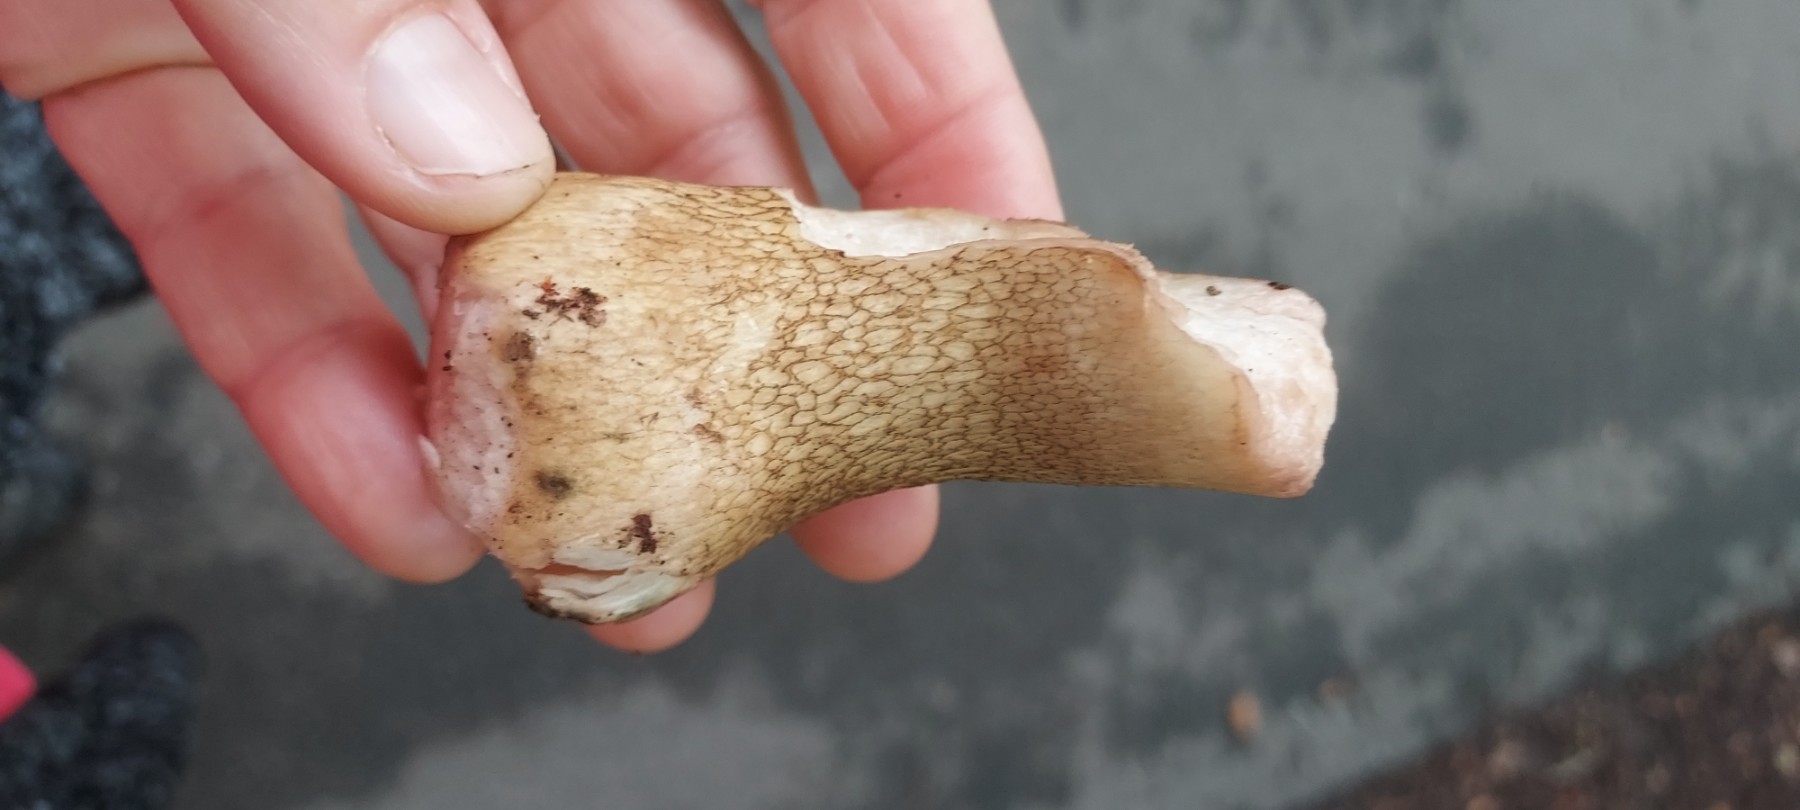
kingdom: Fungi
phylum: Basidiomycota
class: Agaricomycetes
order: Boletales
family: Boletaceae
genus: Tylopilus
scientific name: Tylopilus felleus
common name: galderørhat
